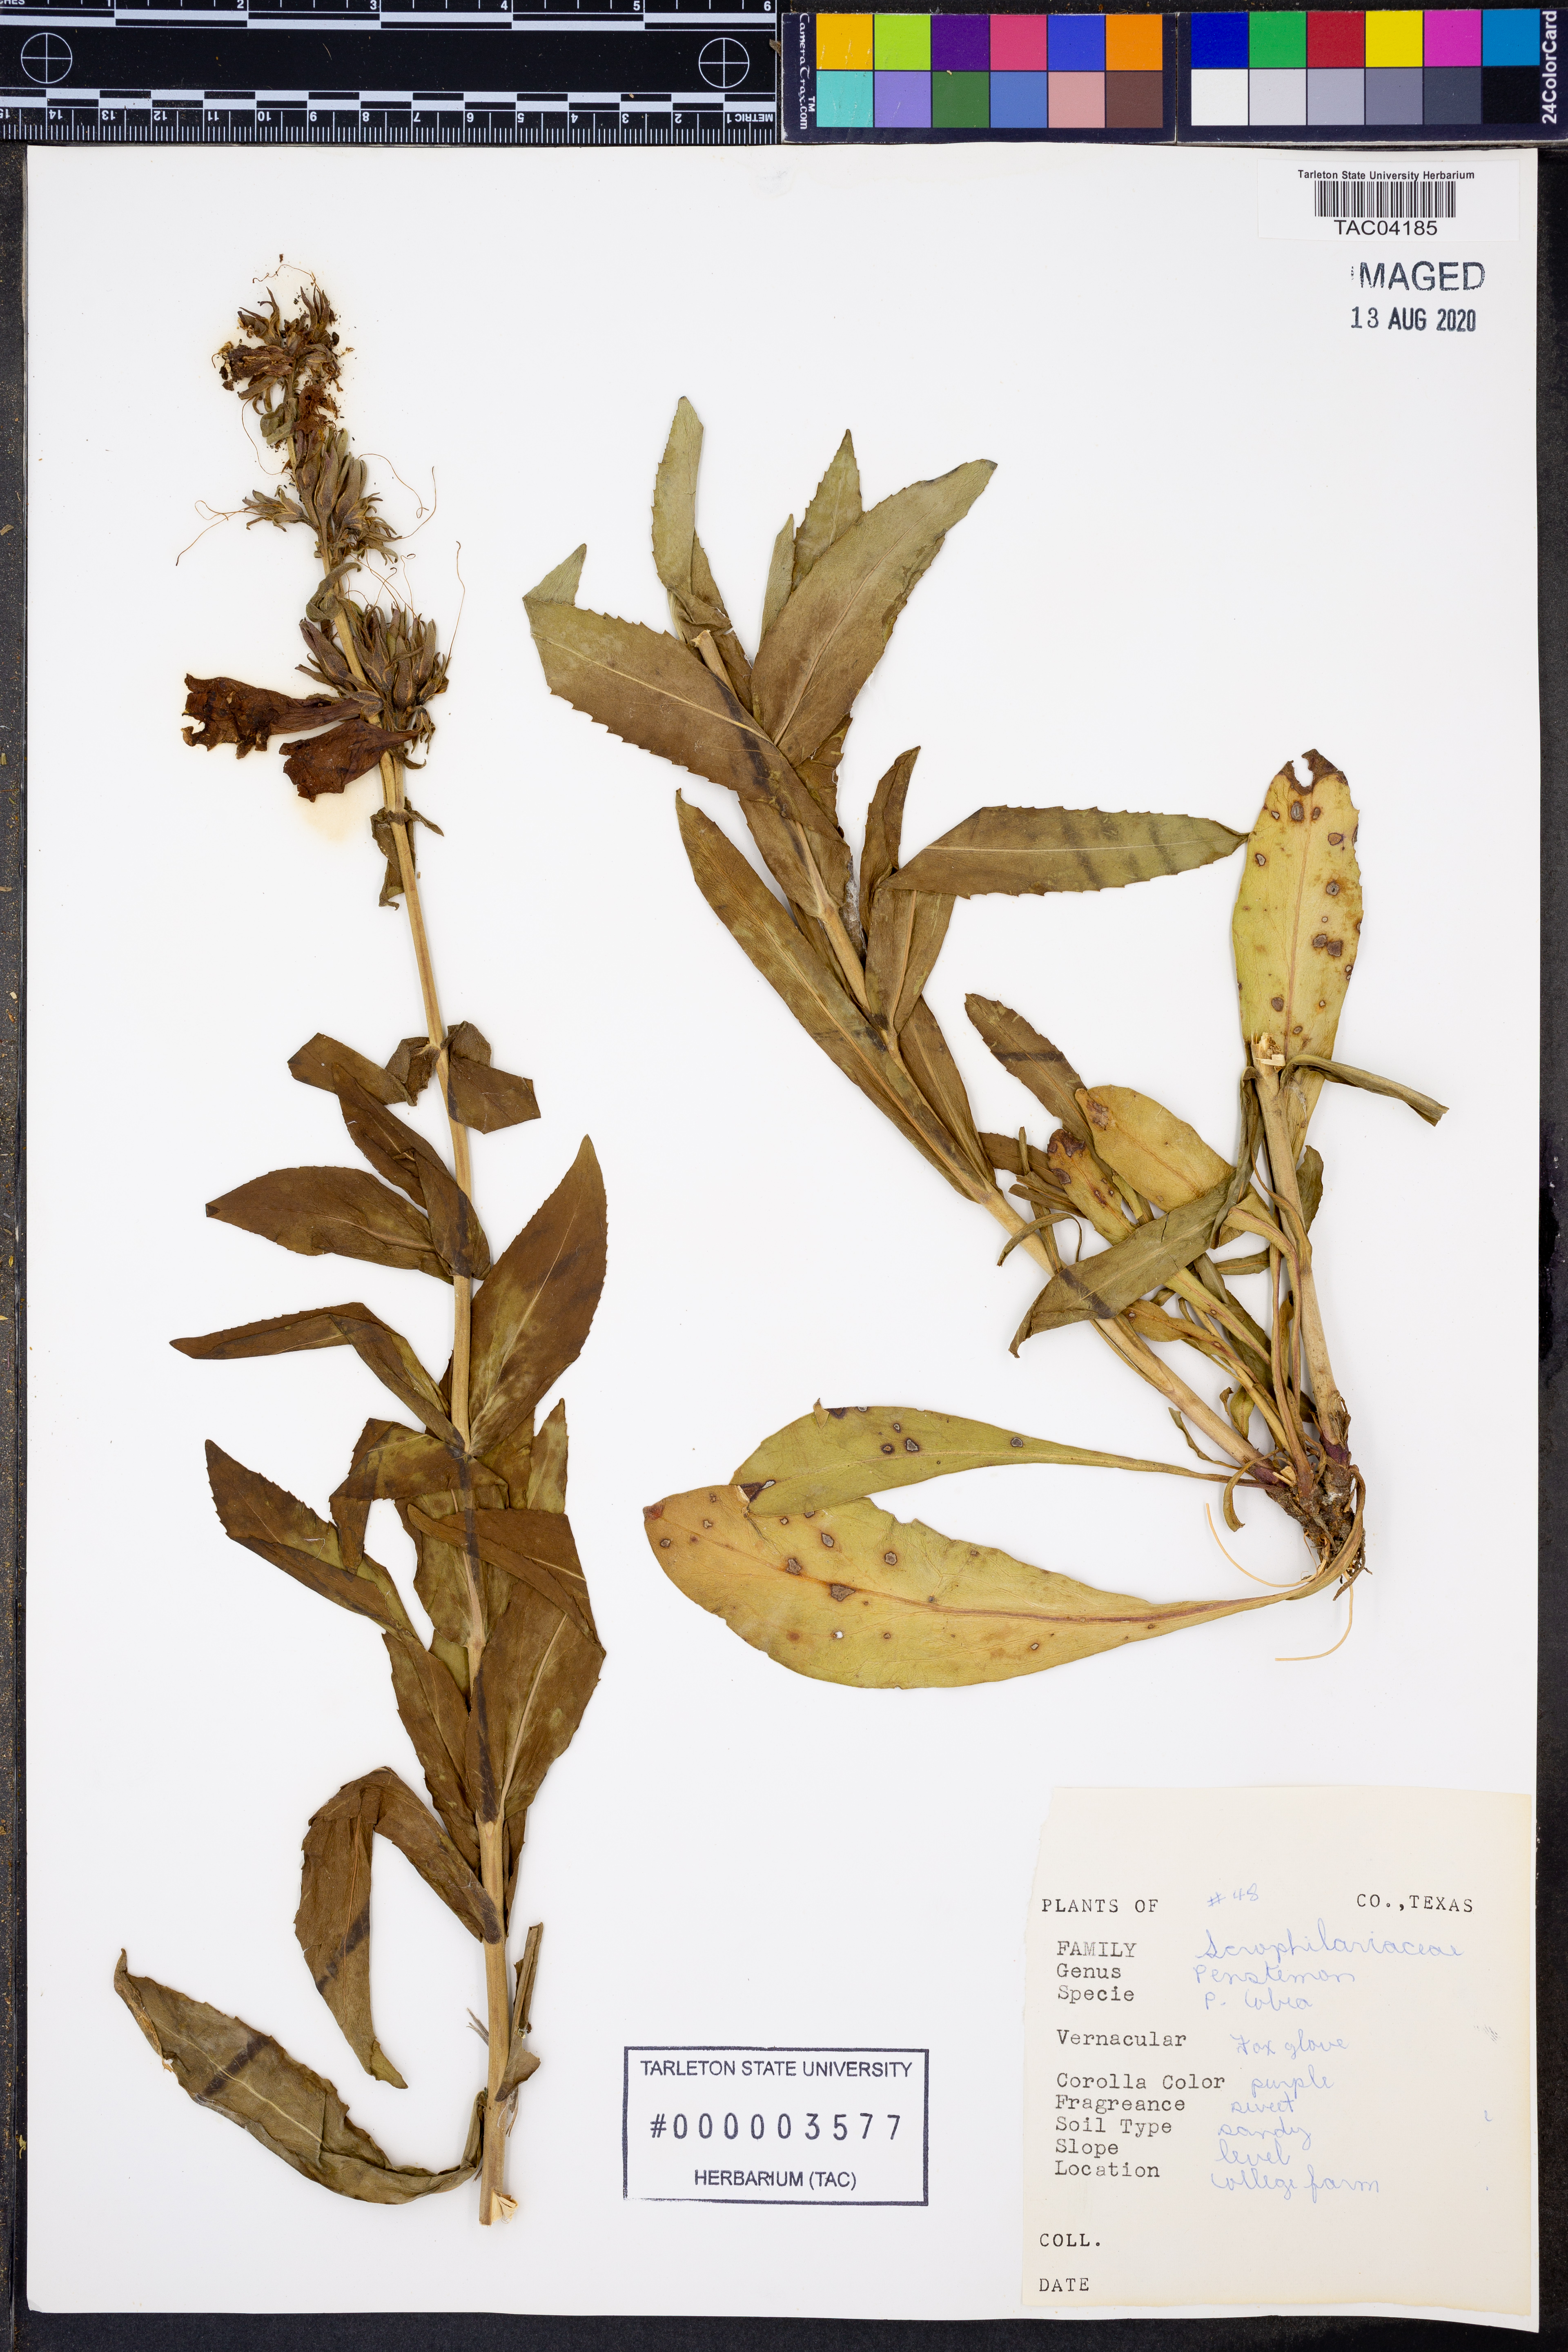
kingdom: Plantae
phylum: Tracheophyta
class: Magnoliopsida
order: Lamiales
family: Plantaginaceae
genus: Penstemon
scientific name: Penstemon cobaea
